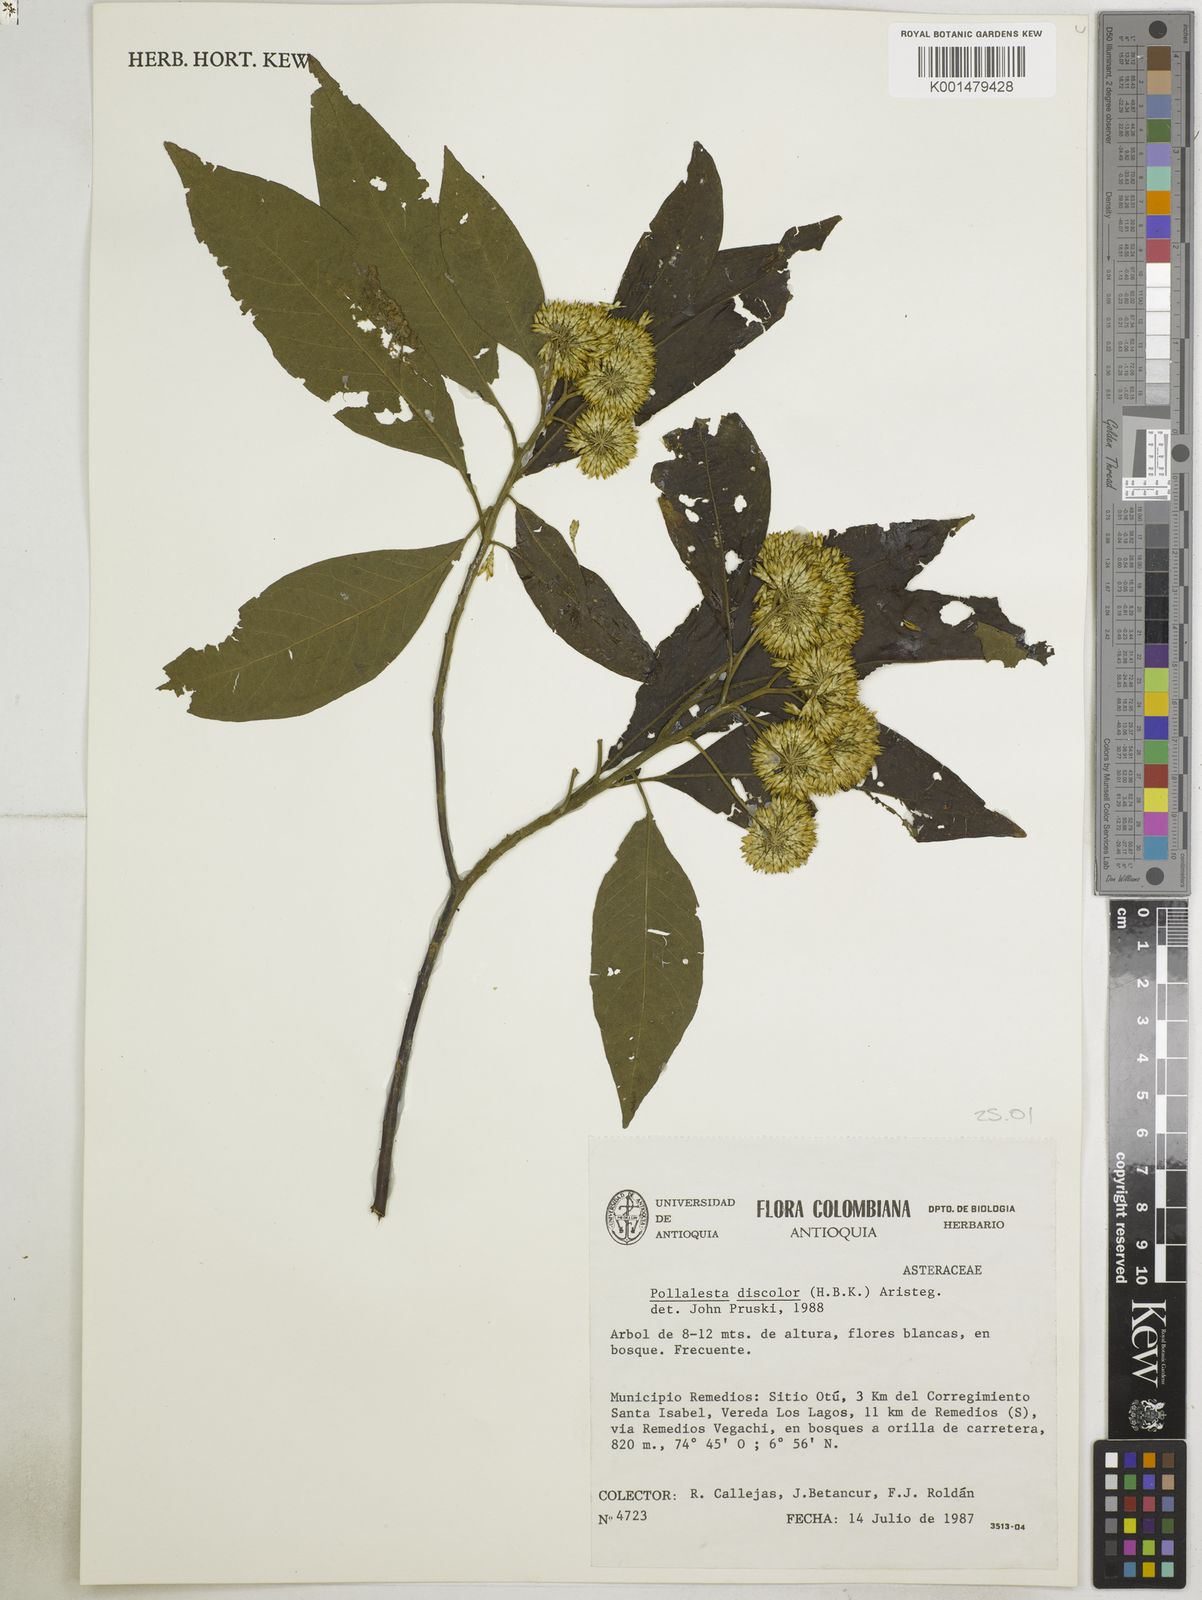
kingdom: Plantae
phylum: Tracheophyta
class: Magnoliopsida
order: Asterales
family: Asteraceae
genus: Piptocoma
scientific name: Piptocoma discolor
